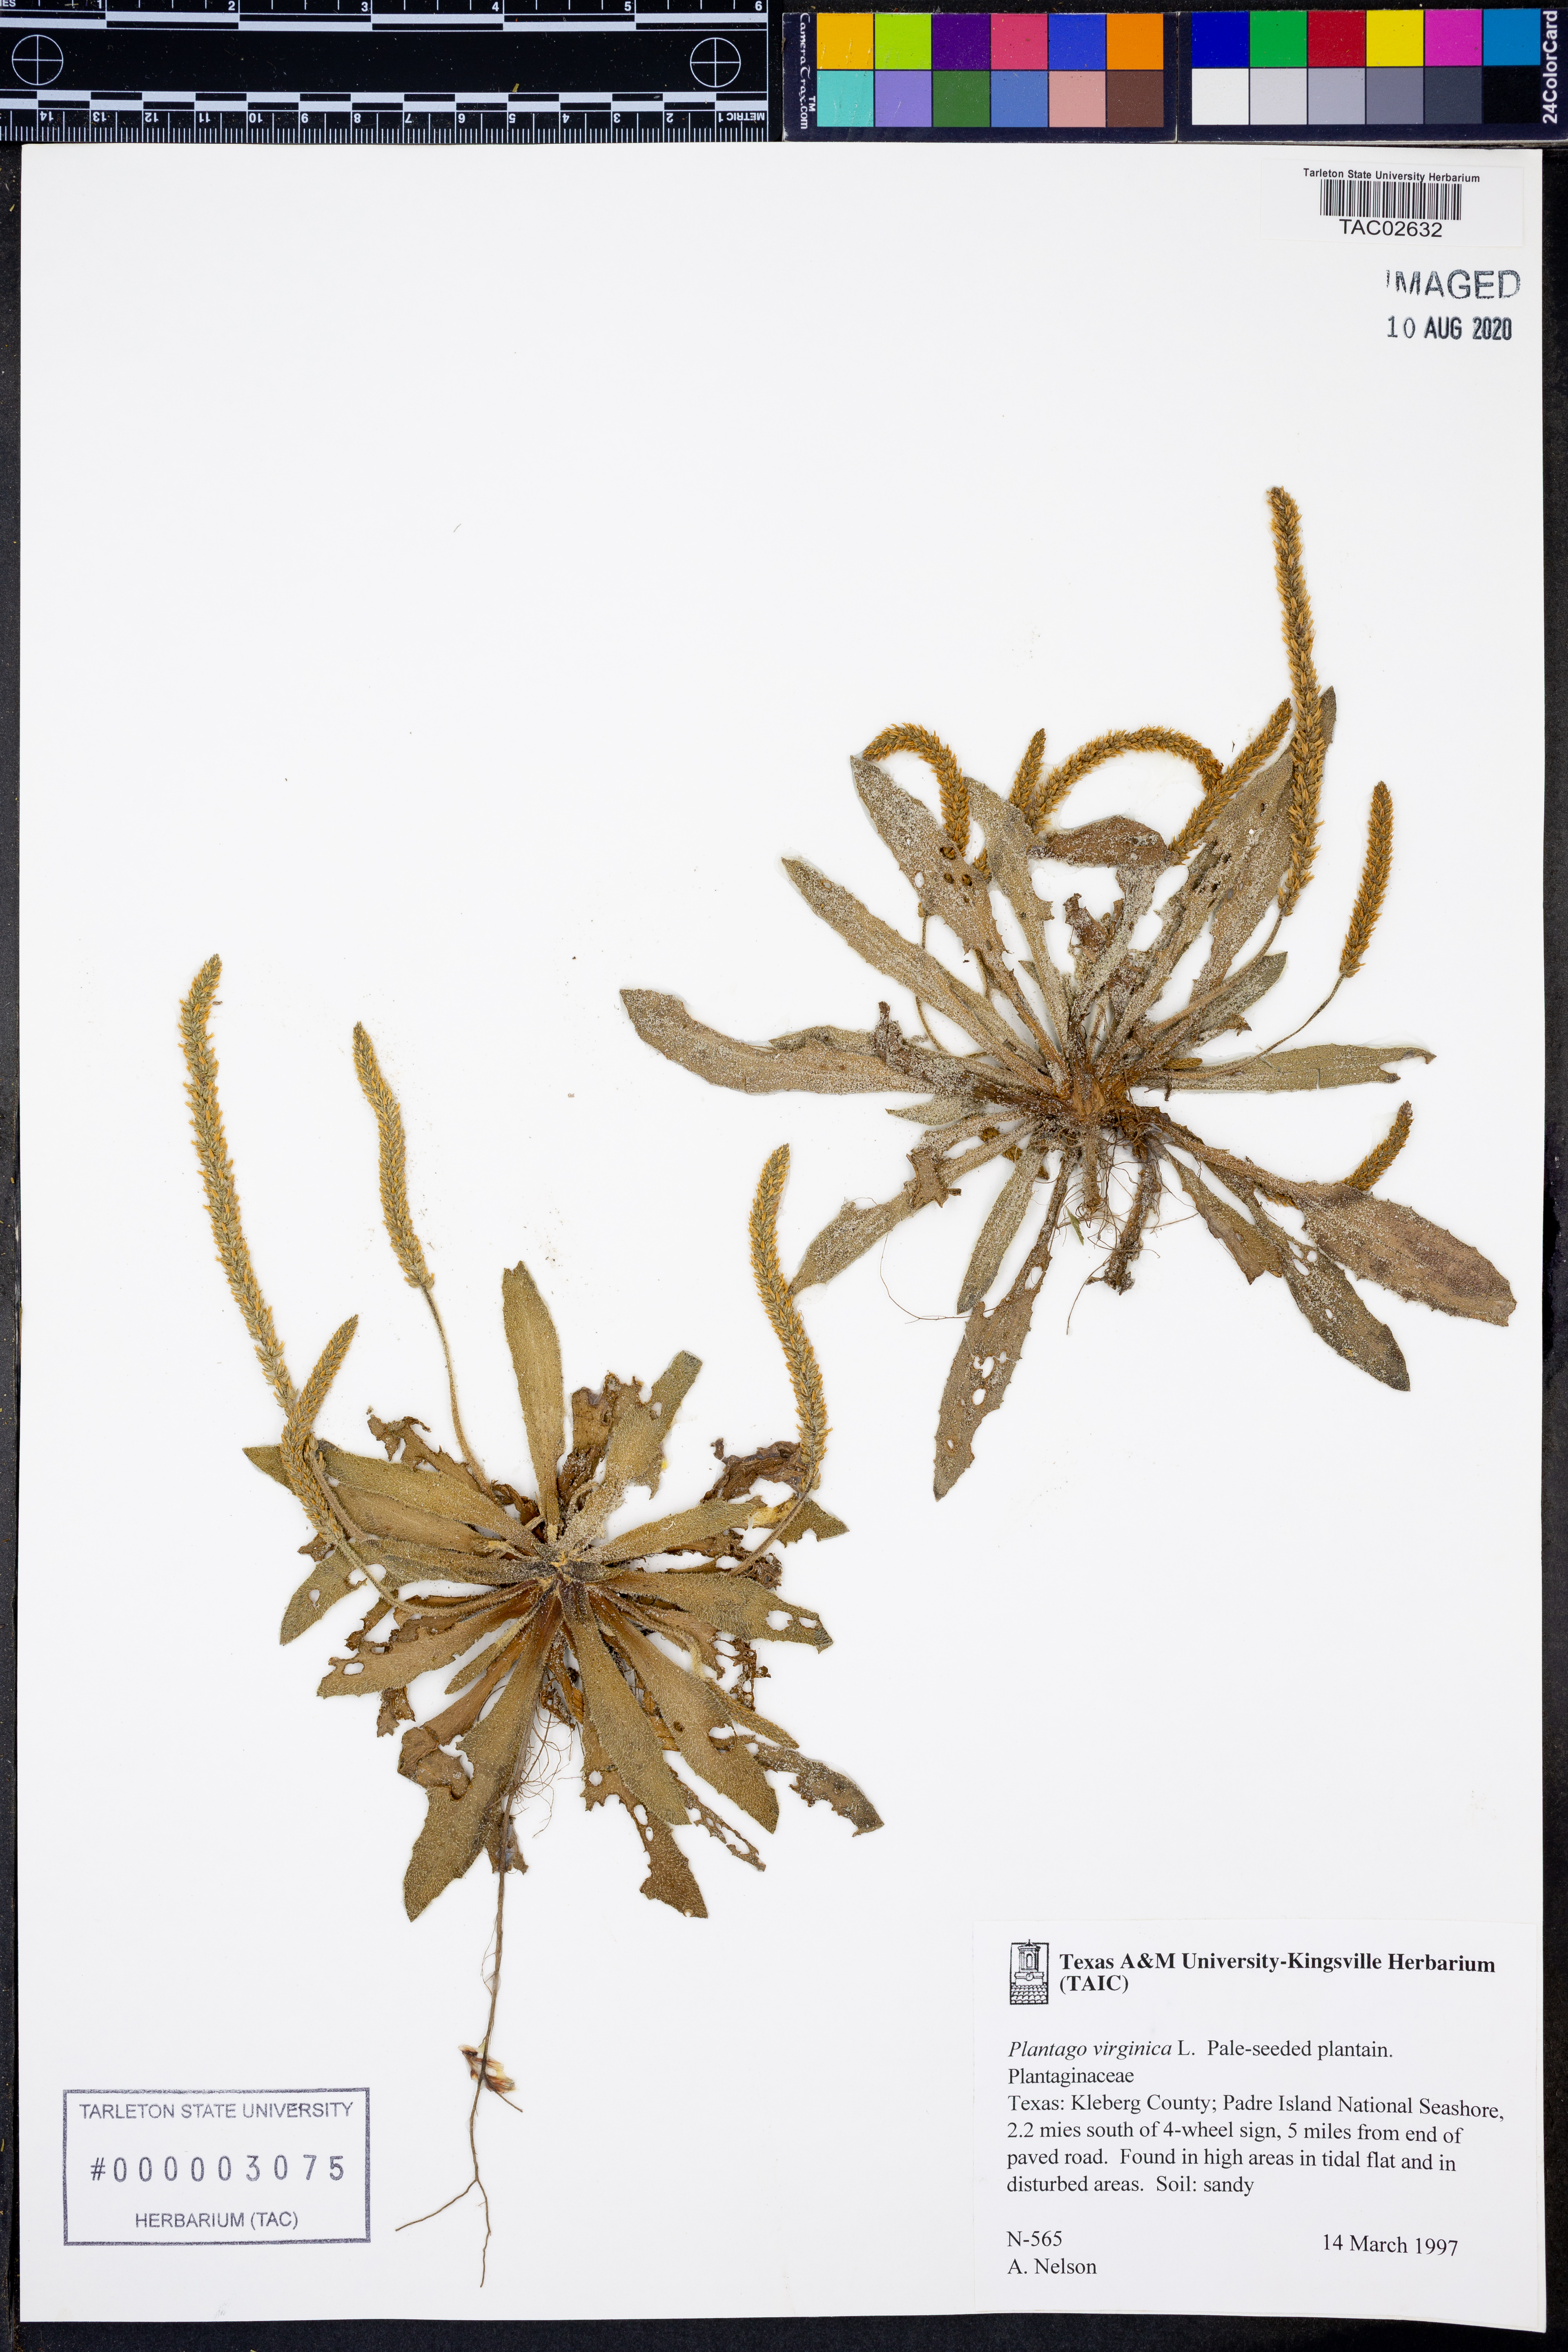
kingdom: Plantae
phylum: Tracheophyta
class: Magnoliopsida
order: Lamiales
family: Plantaginaceae
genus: Plantago
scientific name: Plantago virginica
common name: Hoary plantain
